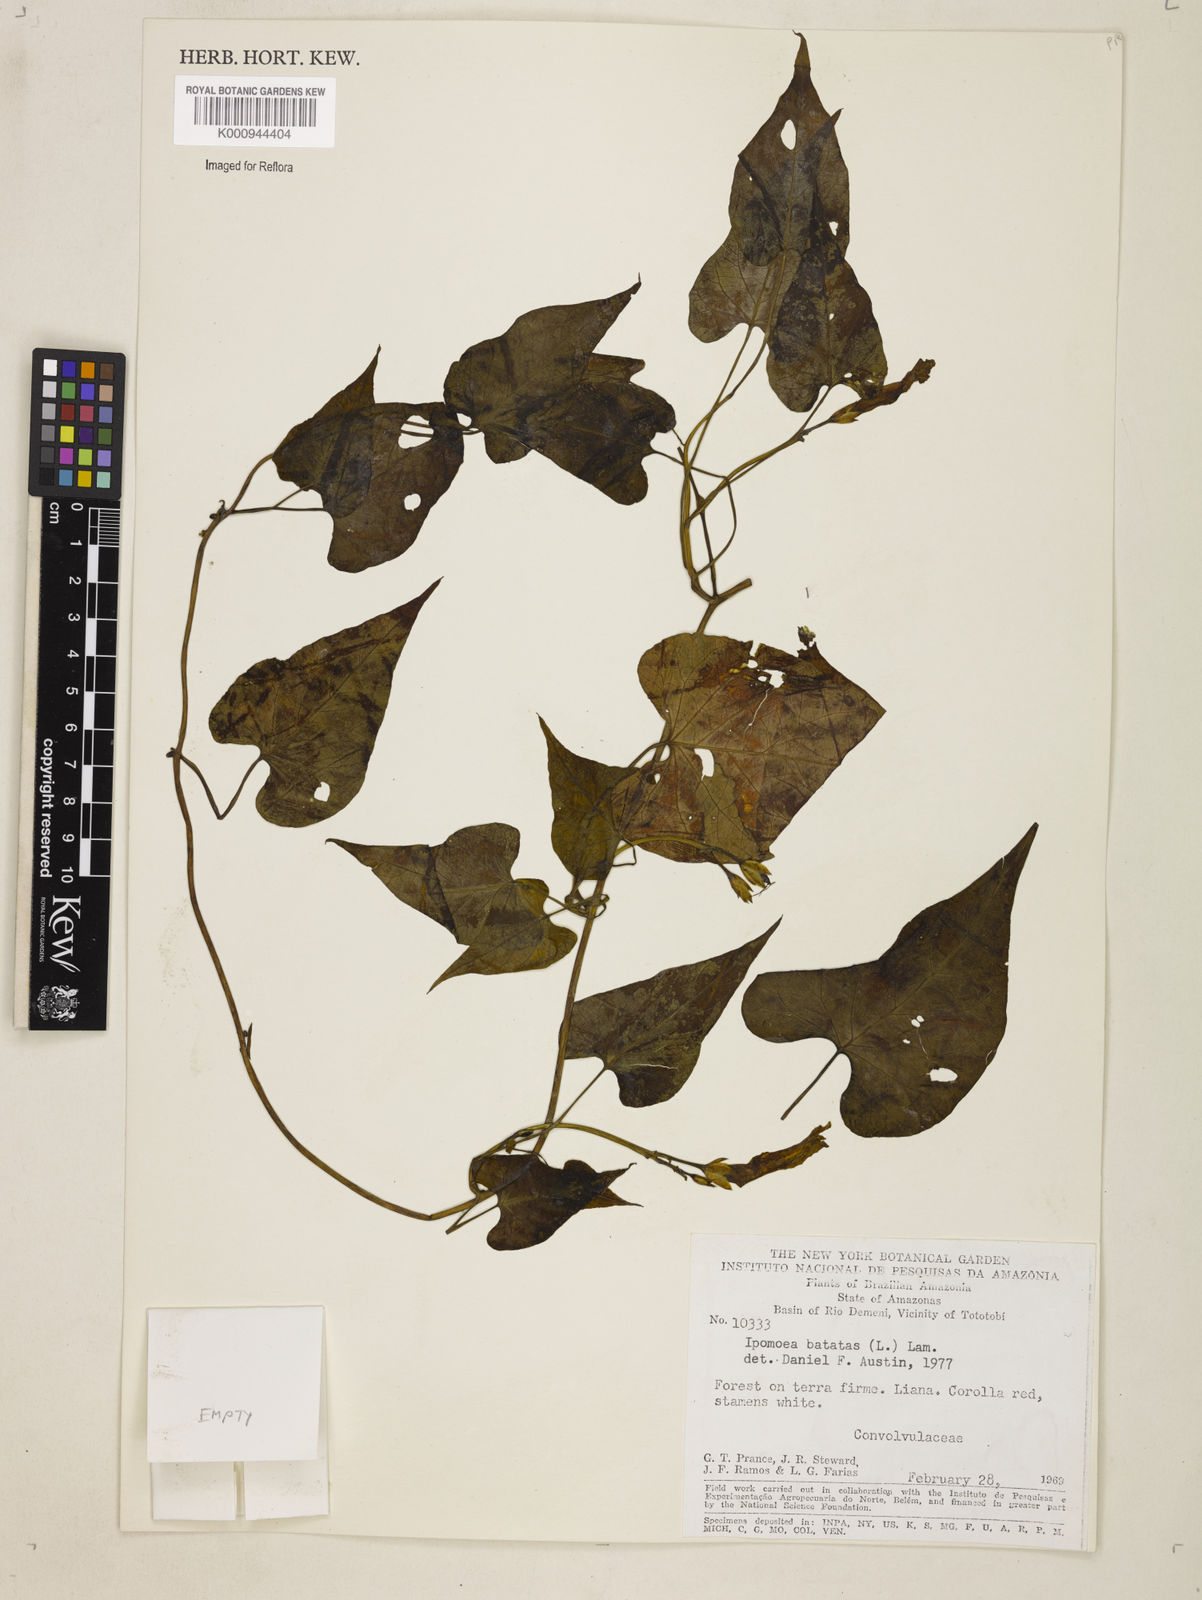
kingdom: Plantae
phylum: Tracheophyta
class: Magnoliopsida
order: Solanales
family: Convolvulaceae
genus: Ipomoea
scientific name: Ipomoea batatas
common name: Sweet-potato
